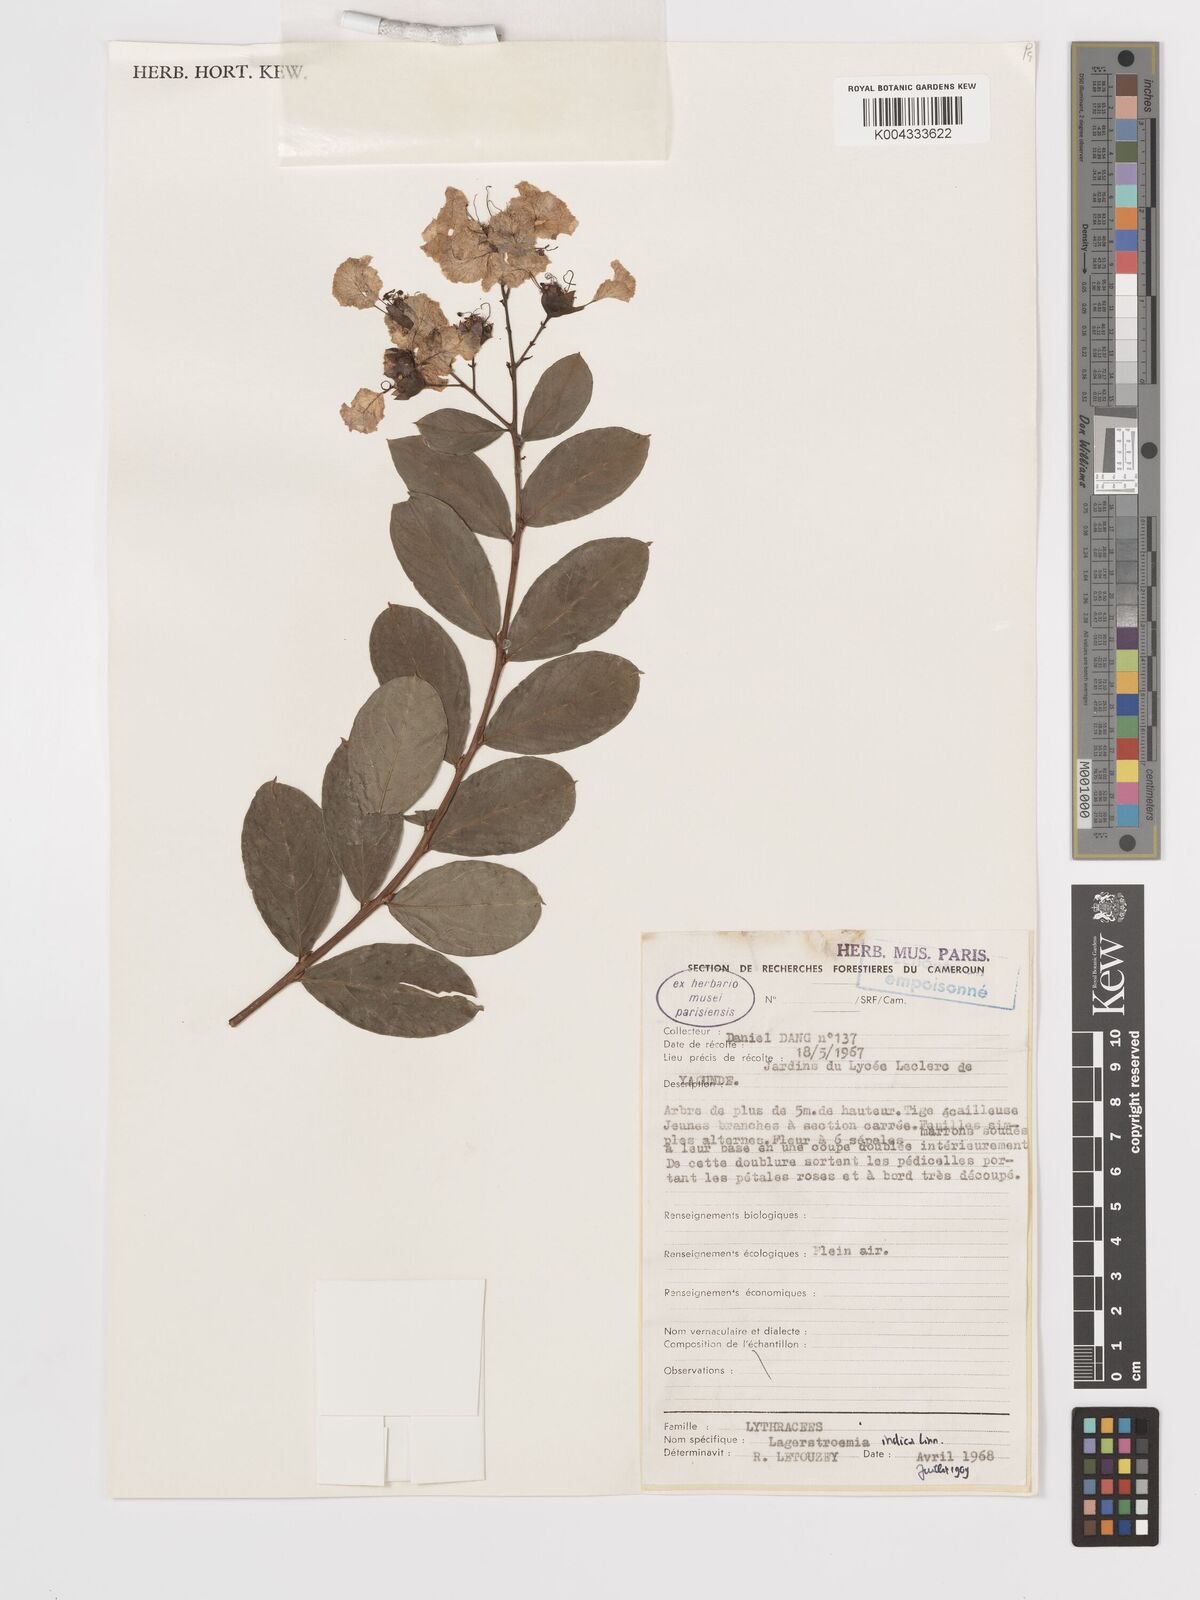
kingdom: Plantae
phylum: Tracheophyta
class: Magnoliopsida
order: Myrtales
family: Lythraceae
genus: Lagerstroemia
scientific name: Lagerstroemia indica
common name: Crape-myrtle
